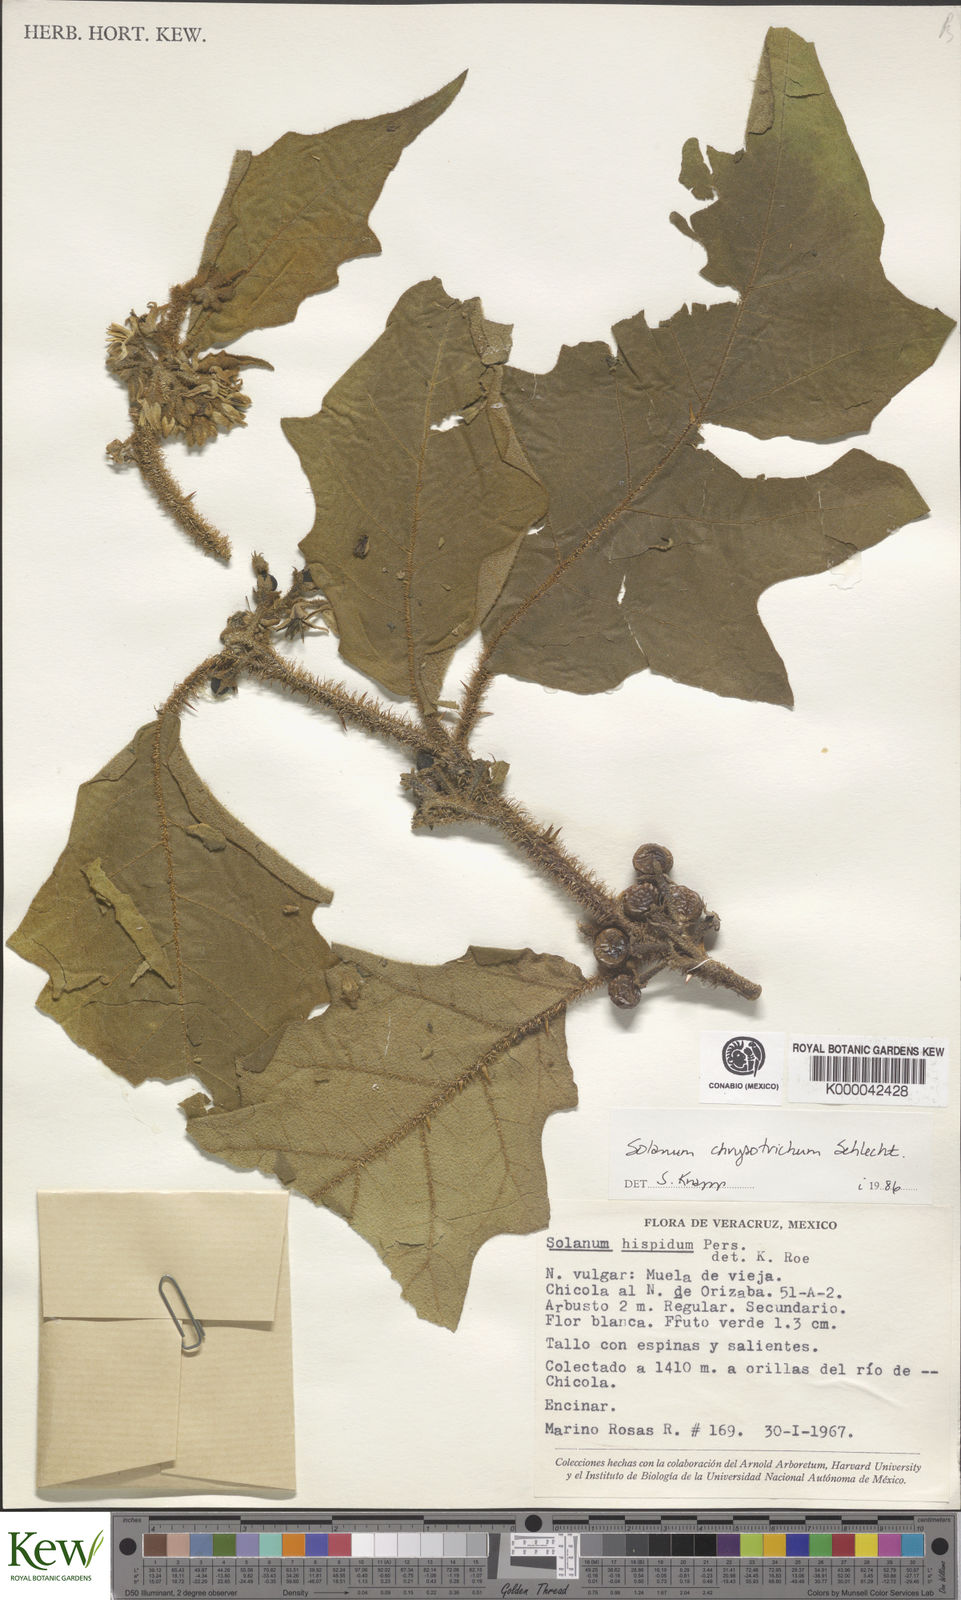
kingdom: Plantae
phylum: Tracheophyta
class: Magnoliopsida
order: Solanales
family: Solanaceae
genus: Solanum
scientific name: Solanum
